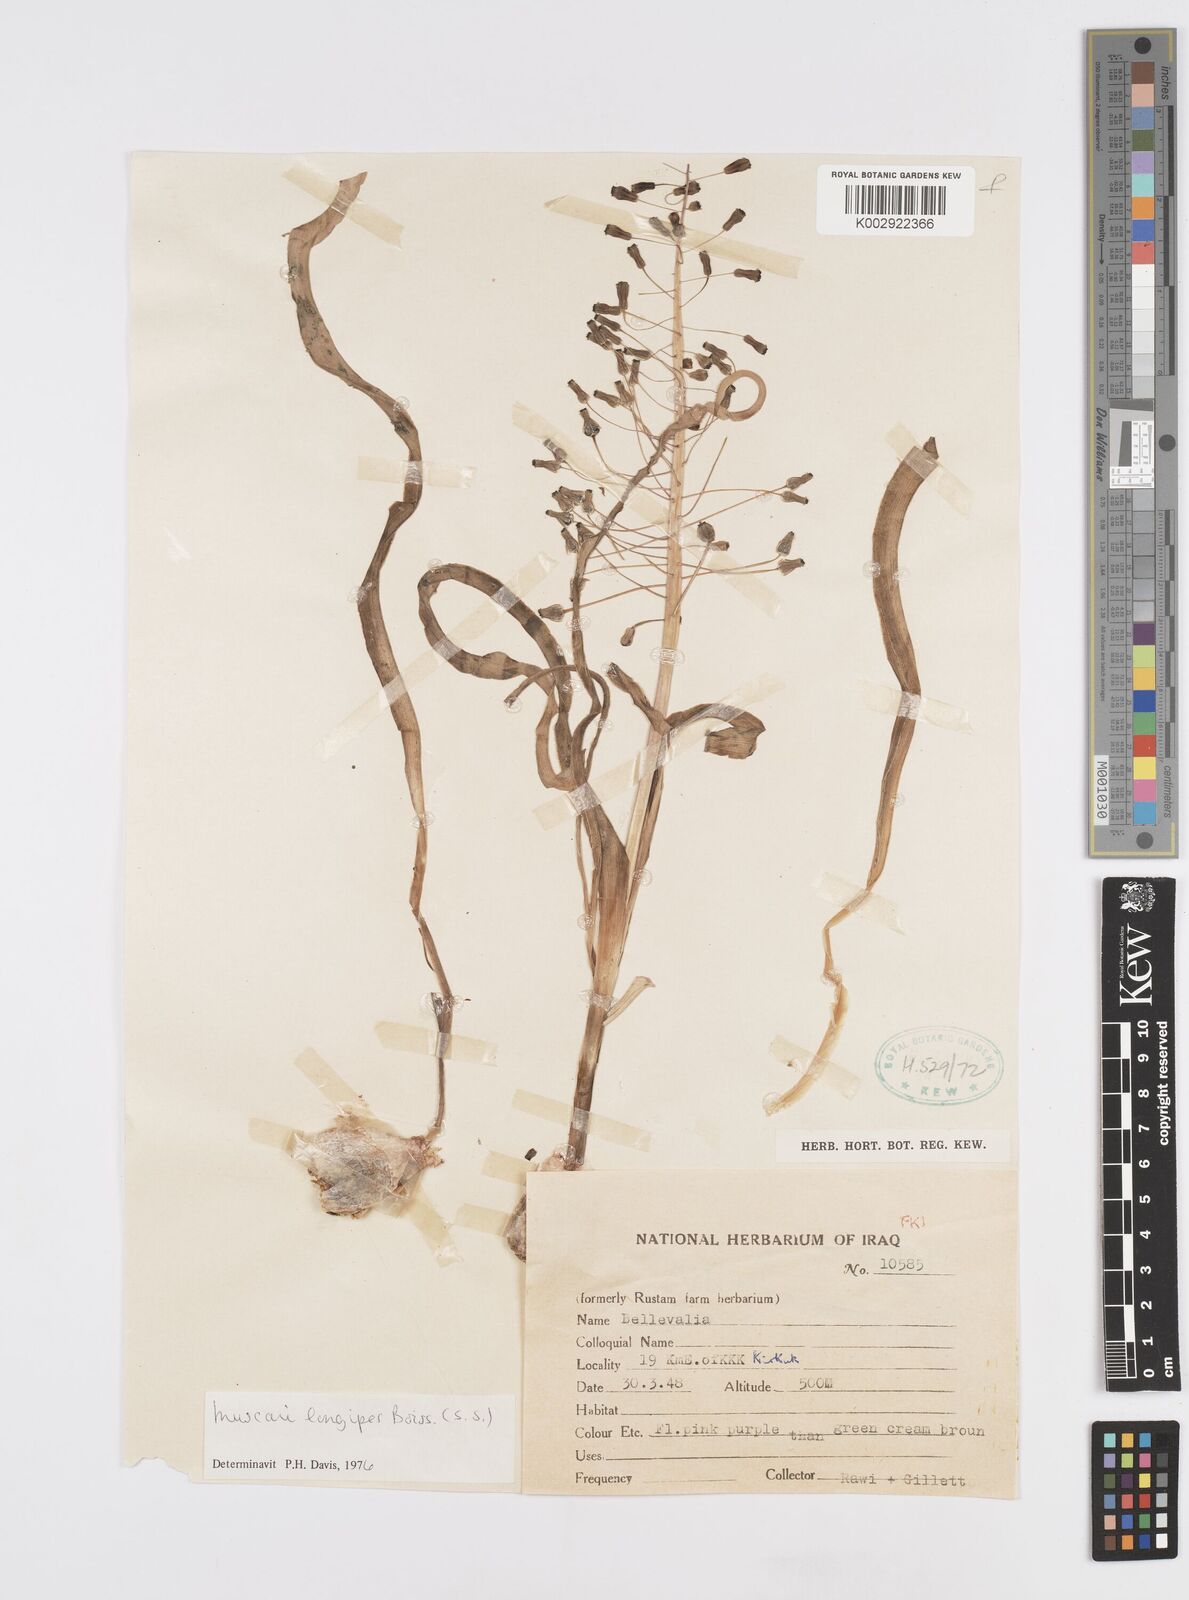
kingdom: Plantae
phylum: Tracheophyta
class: Liliopsida
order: Asparagales
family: Asparagaceae
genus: Muscari
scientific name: Muscari longipes
